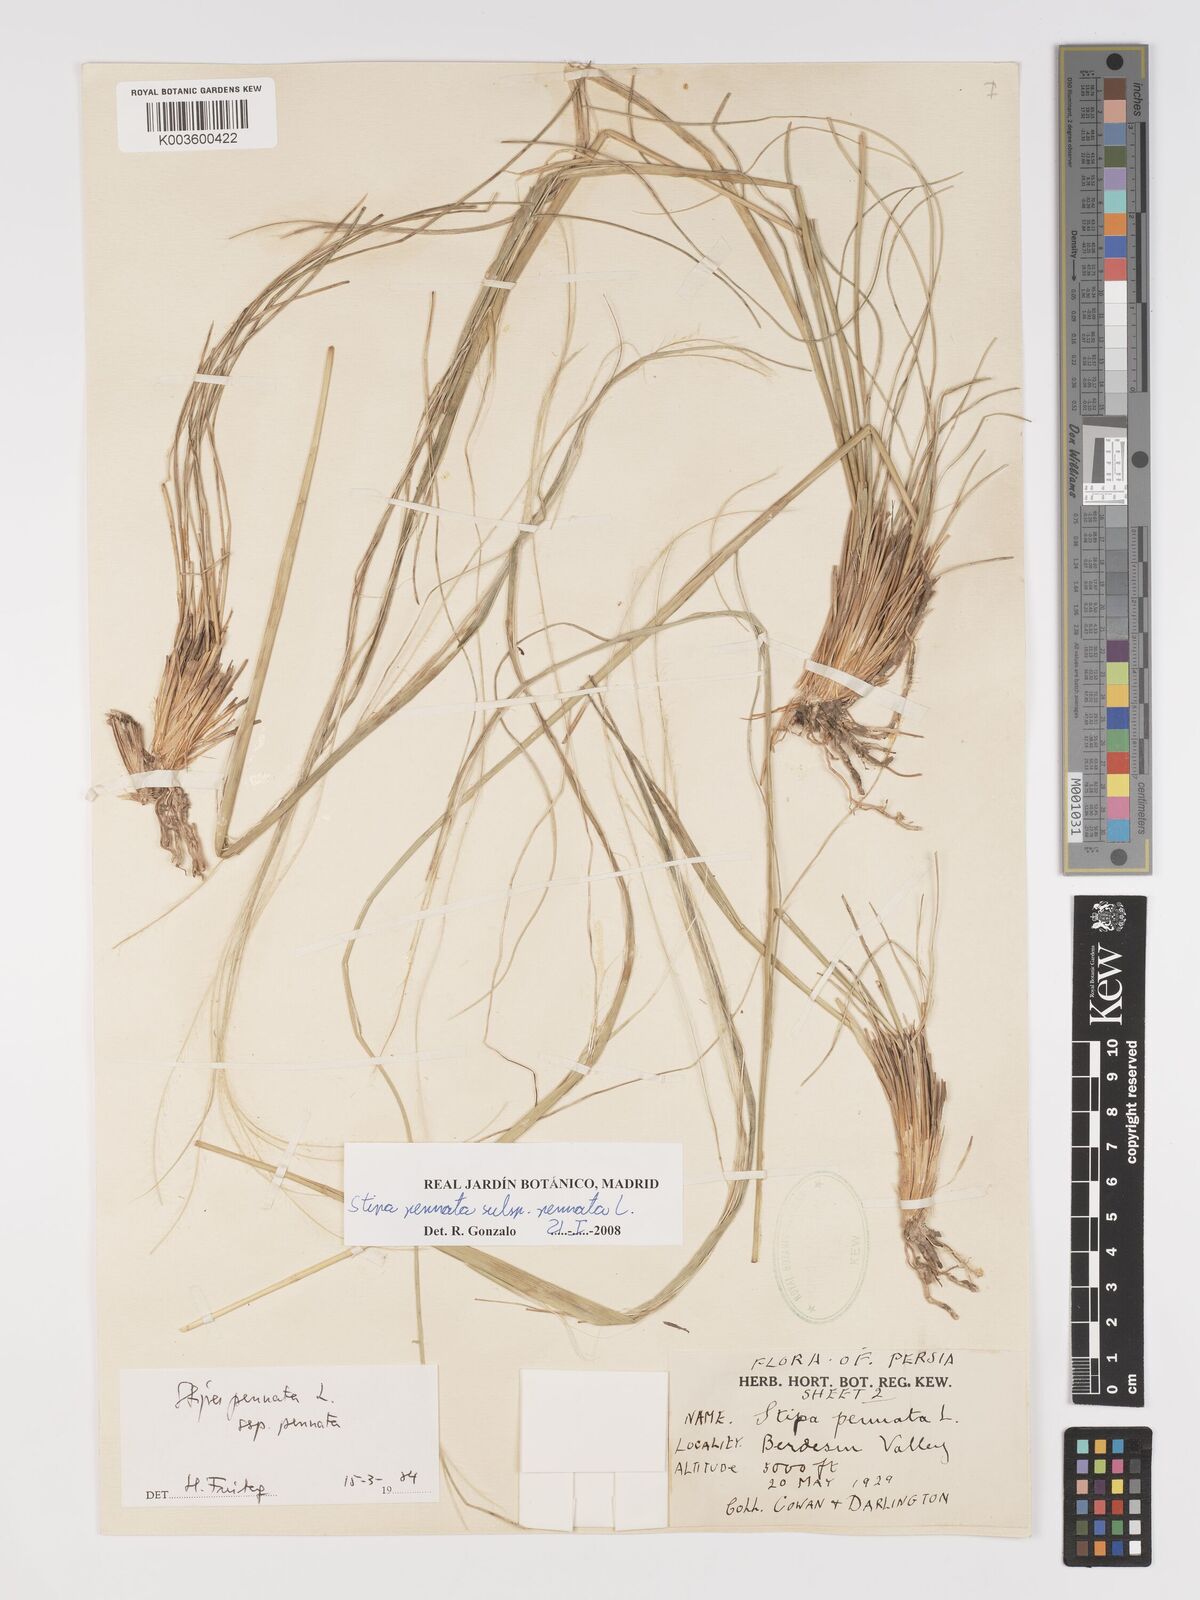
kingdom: Plantae
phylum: Tracheophyta
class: Liliopsida
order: Poales
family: Poaceae
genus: Stipa
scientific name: Stipa pennata
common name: European feather grass
